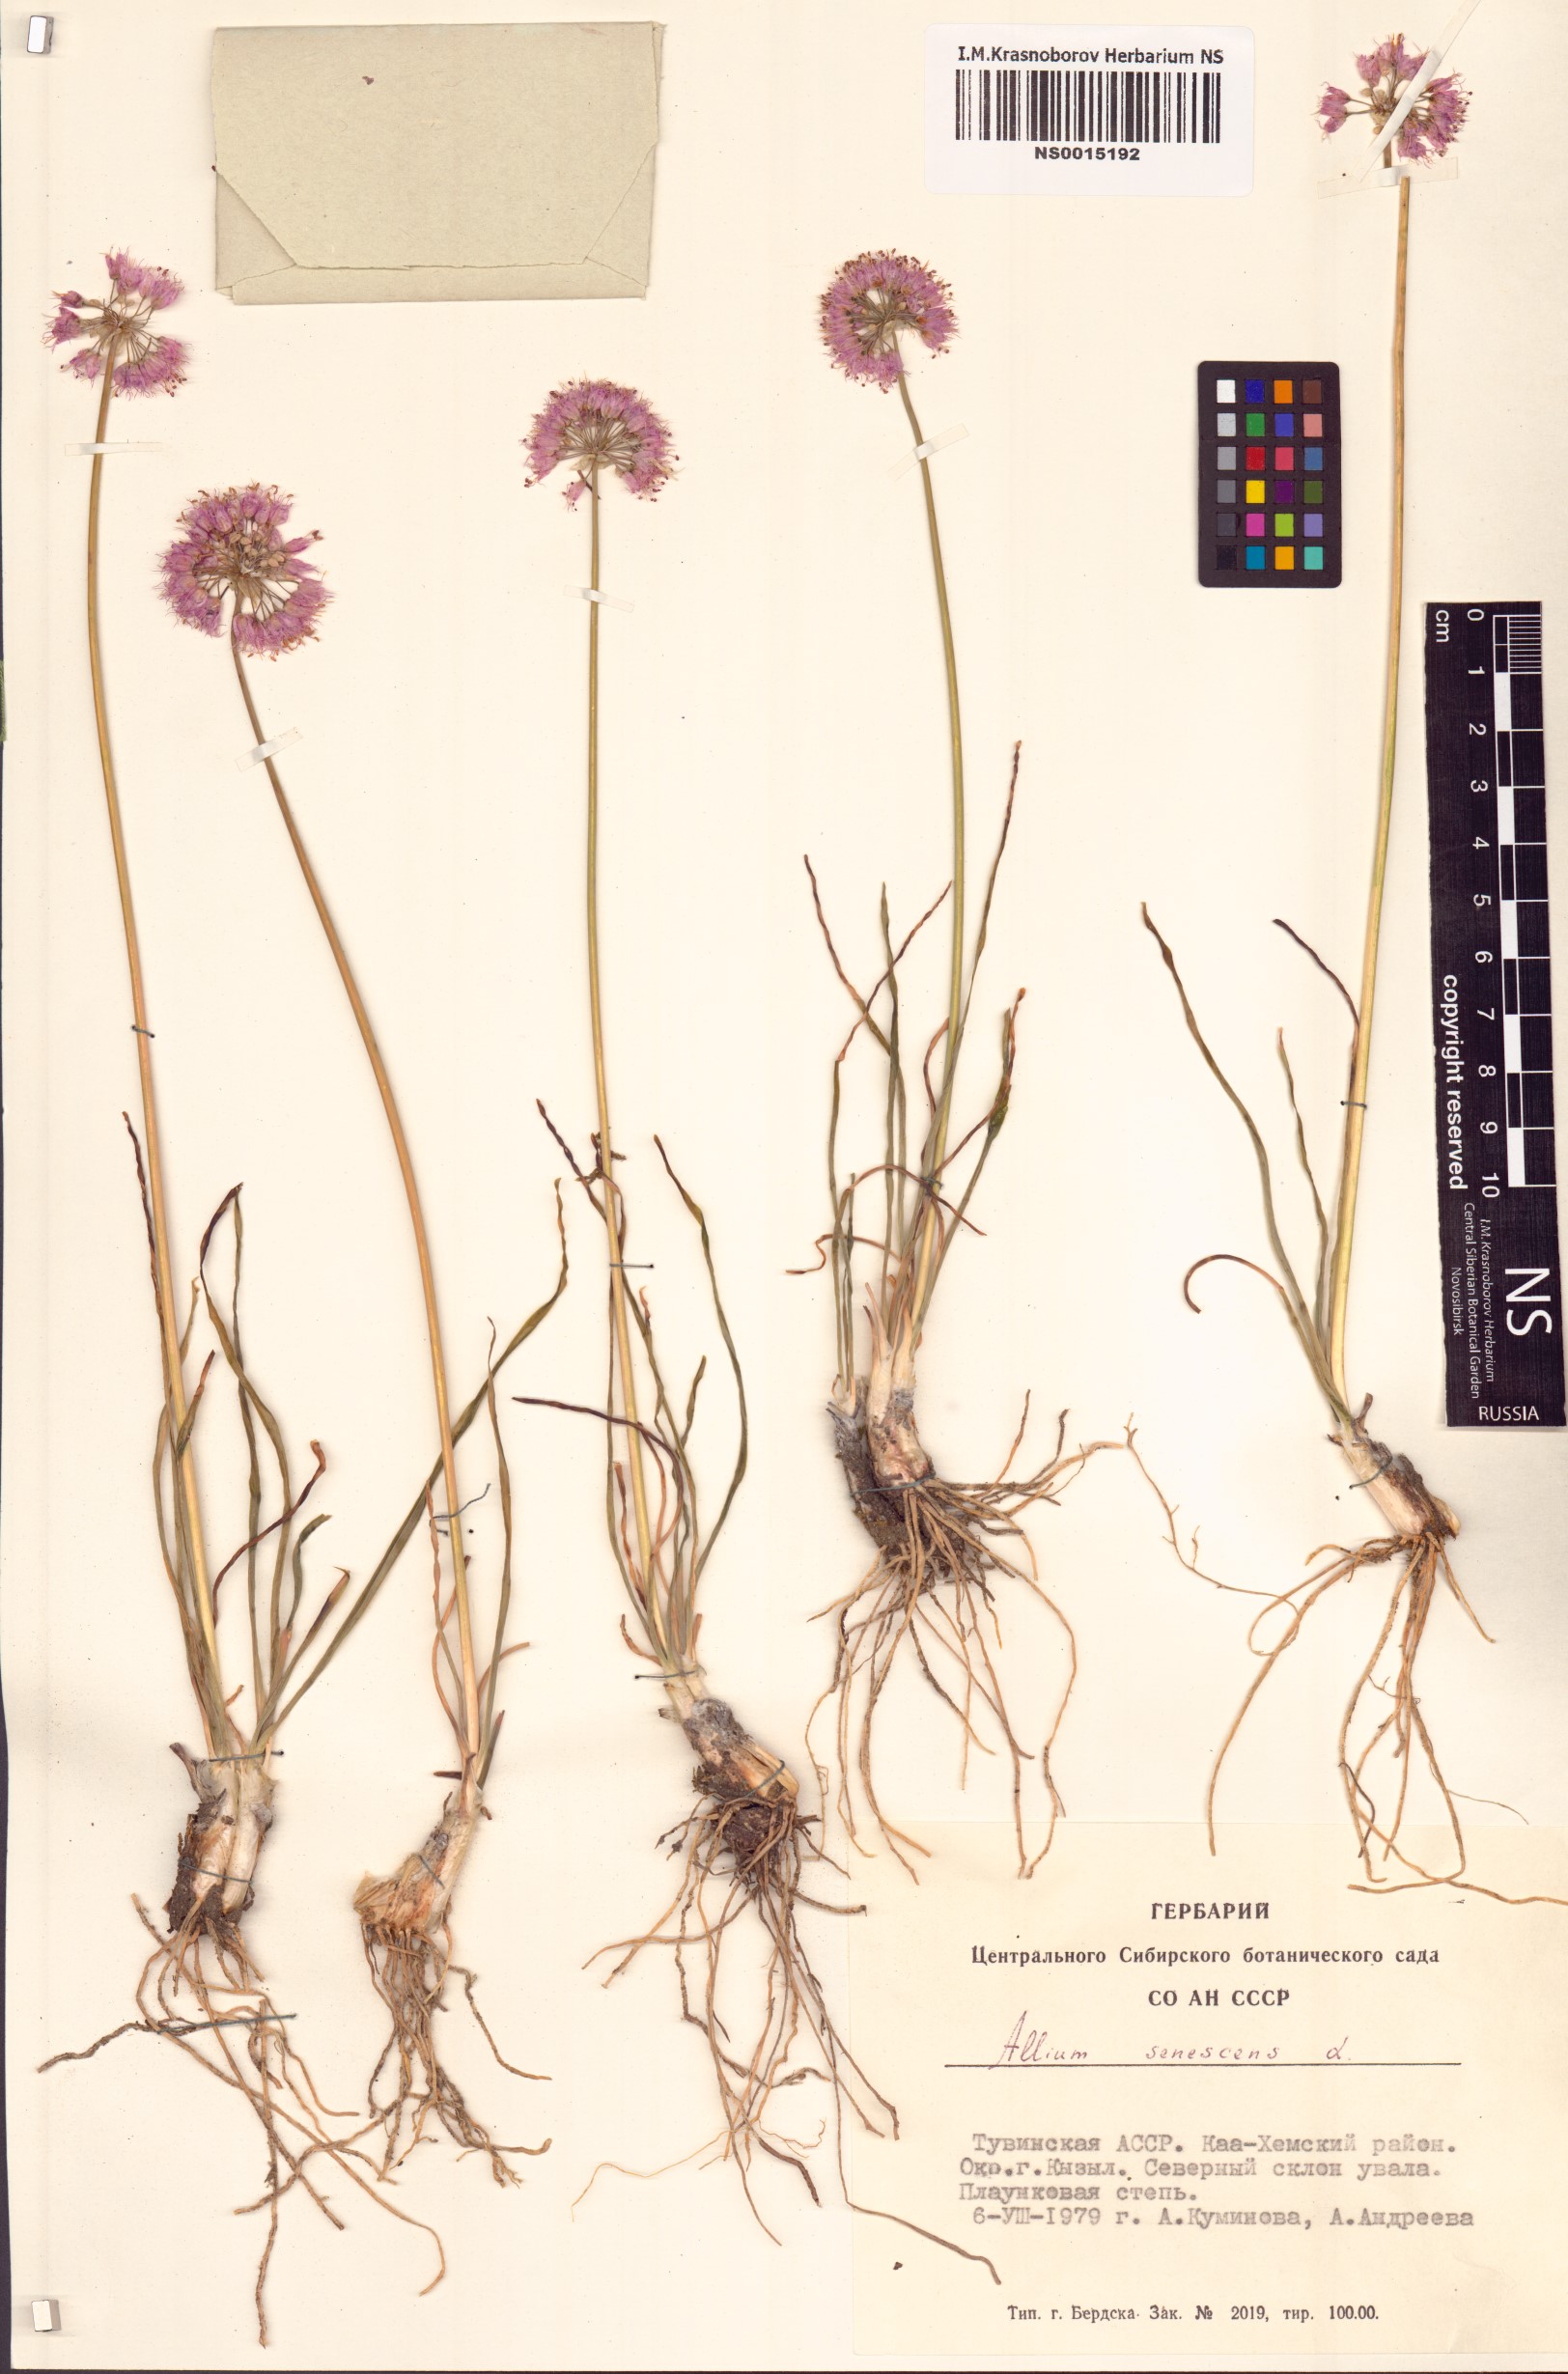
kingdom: Plantae
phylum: Tracheophyta
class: Liliopsida
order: Asparagales
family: Amaryllidaceae
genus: Allium
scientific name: Allium senescens
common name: German garlic
